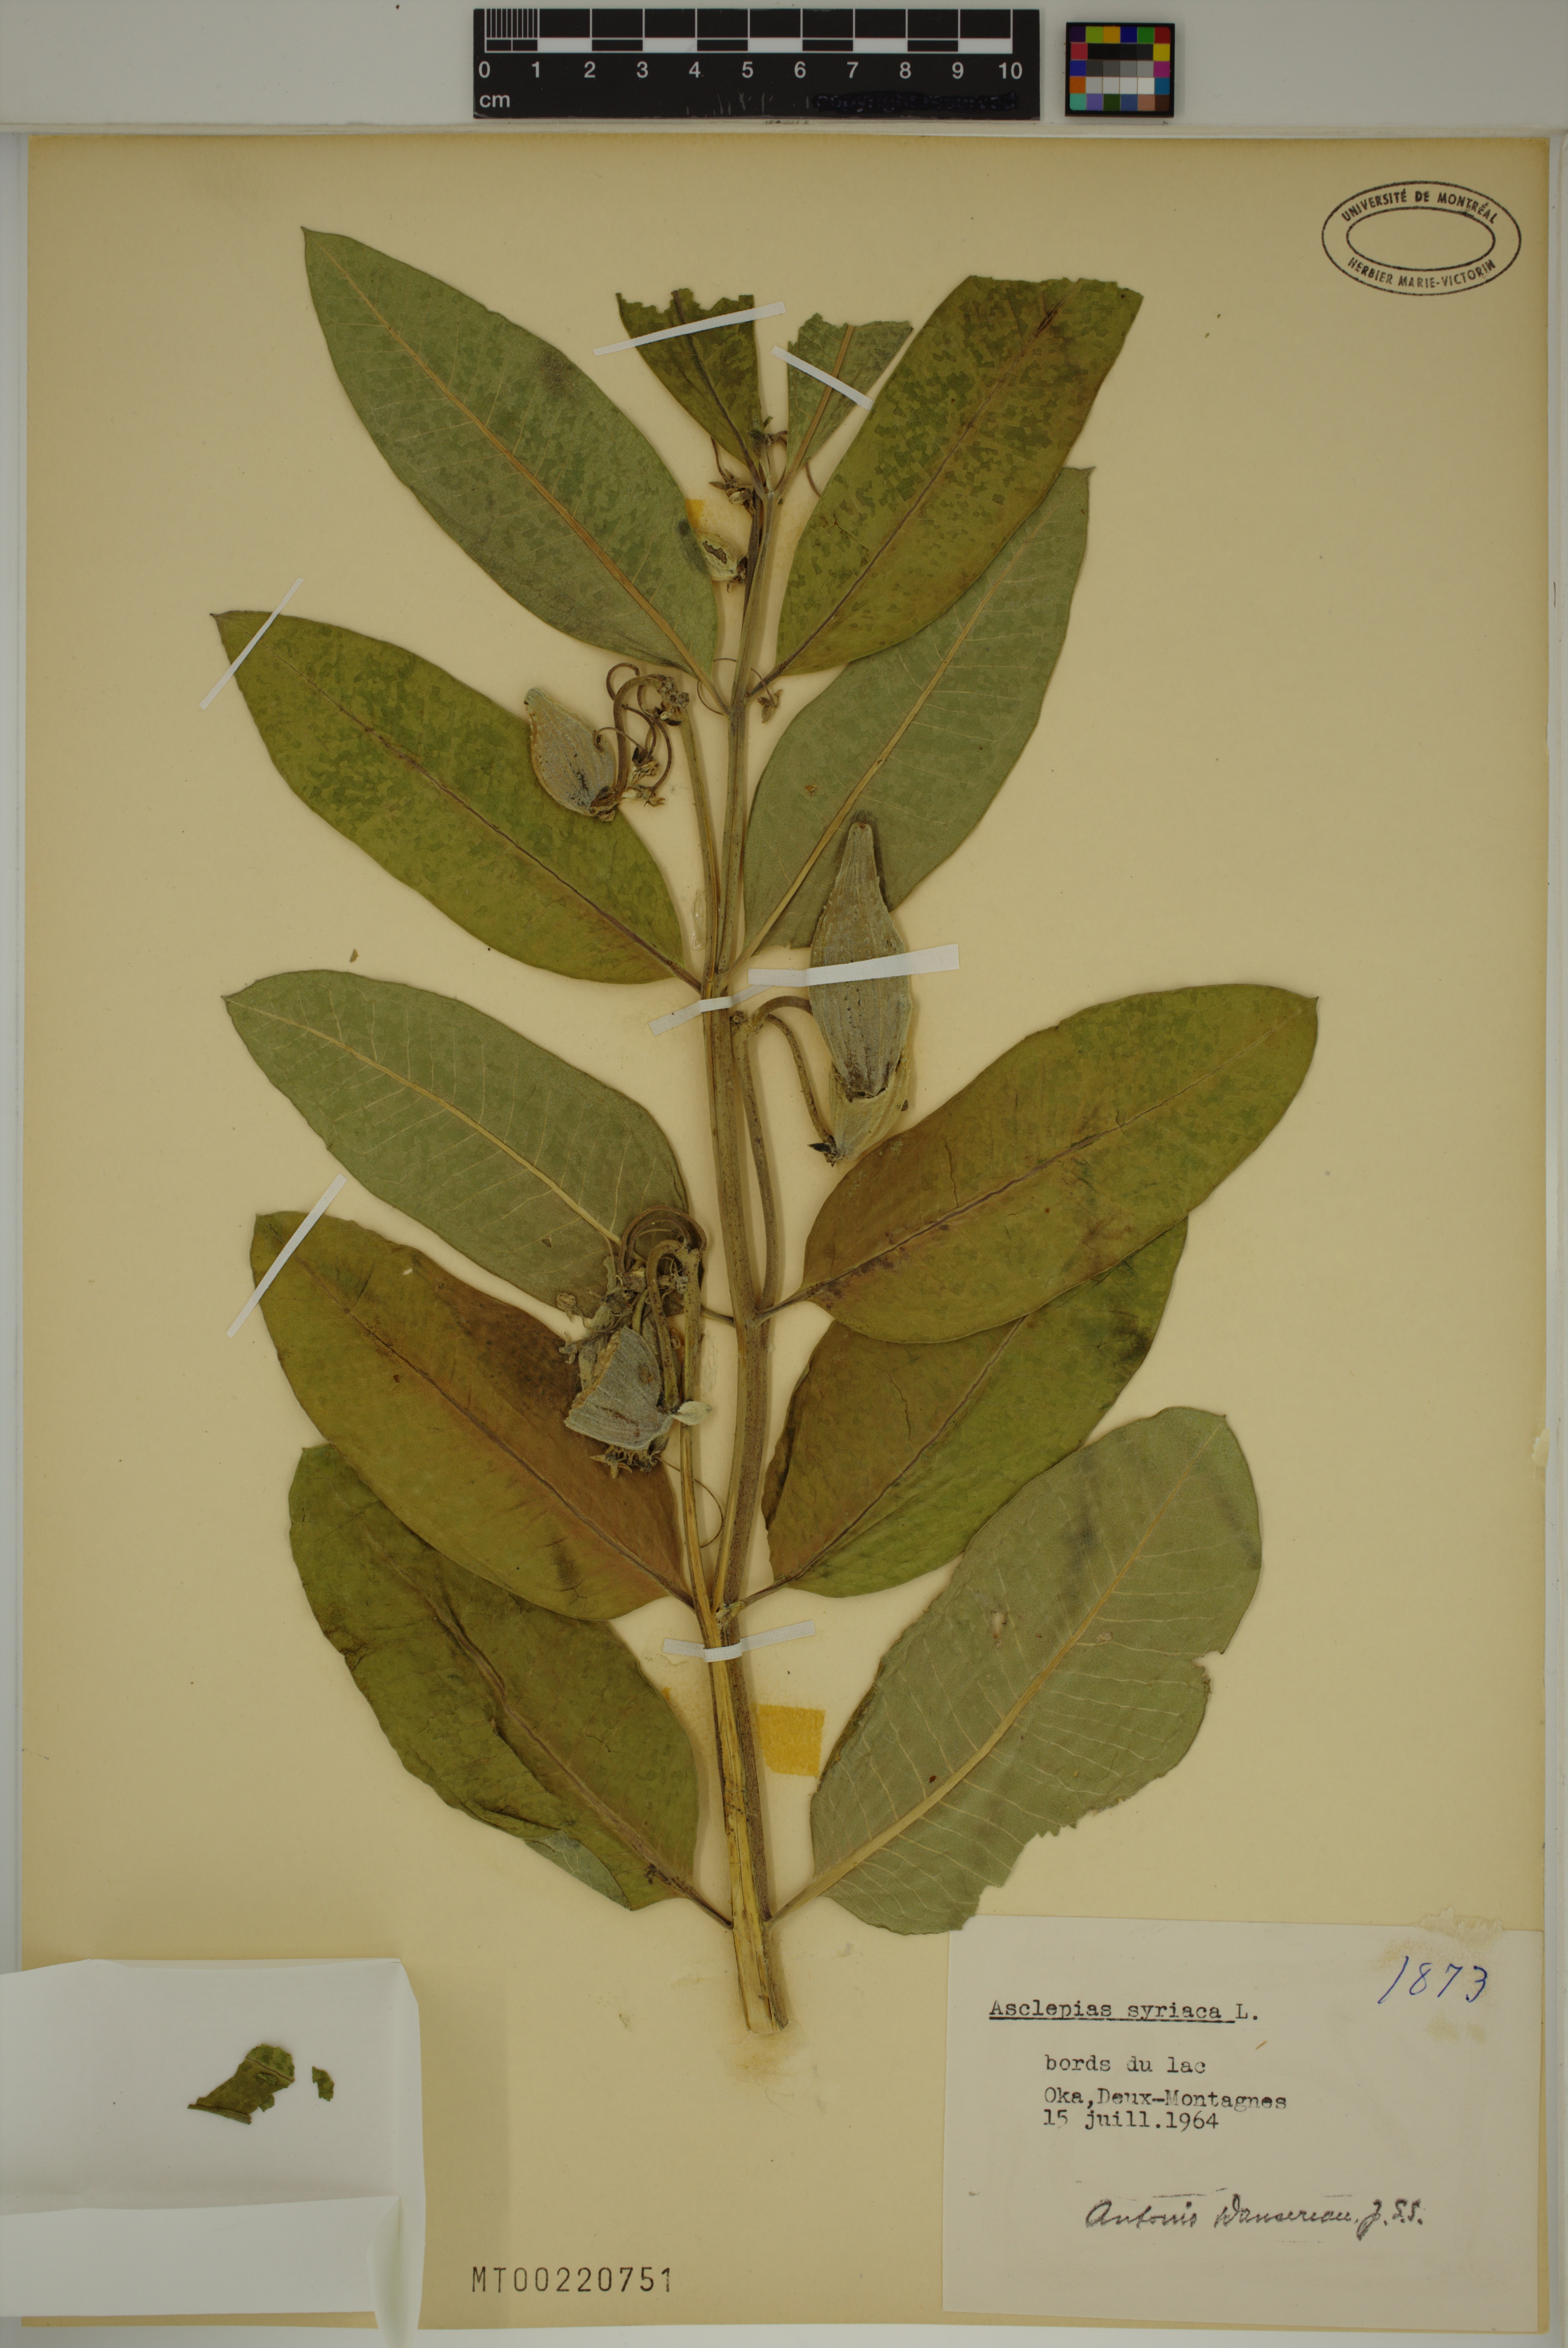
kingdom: Plantae
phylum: Tracheophyta
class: Magnoliopsida
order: Gentianales
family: Apocynaceae
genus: Asclepias
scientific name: Asclepias syriaca
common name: Common milkweed
